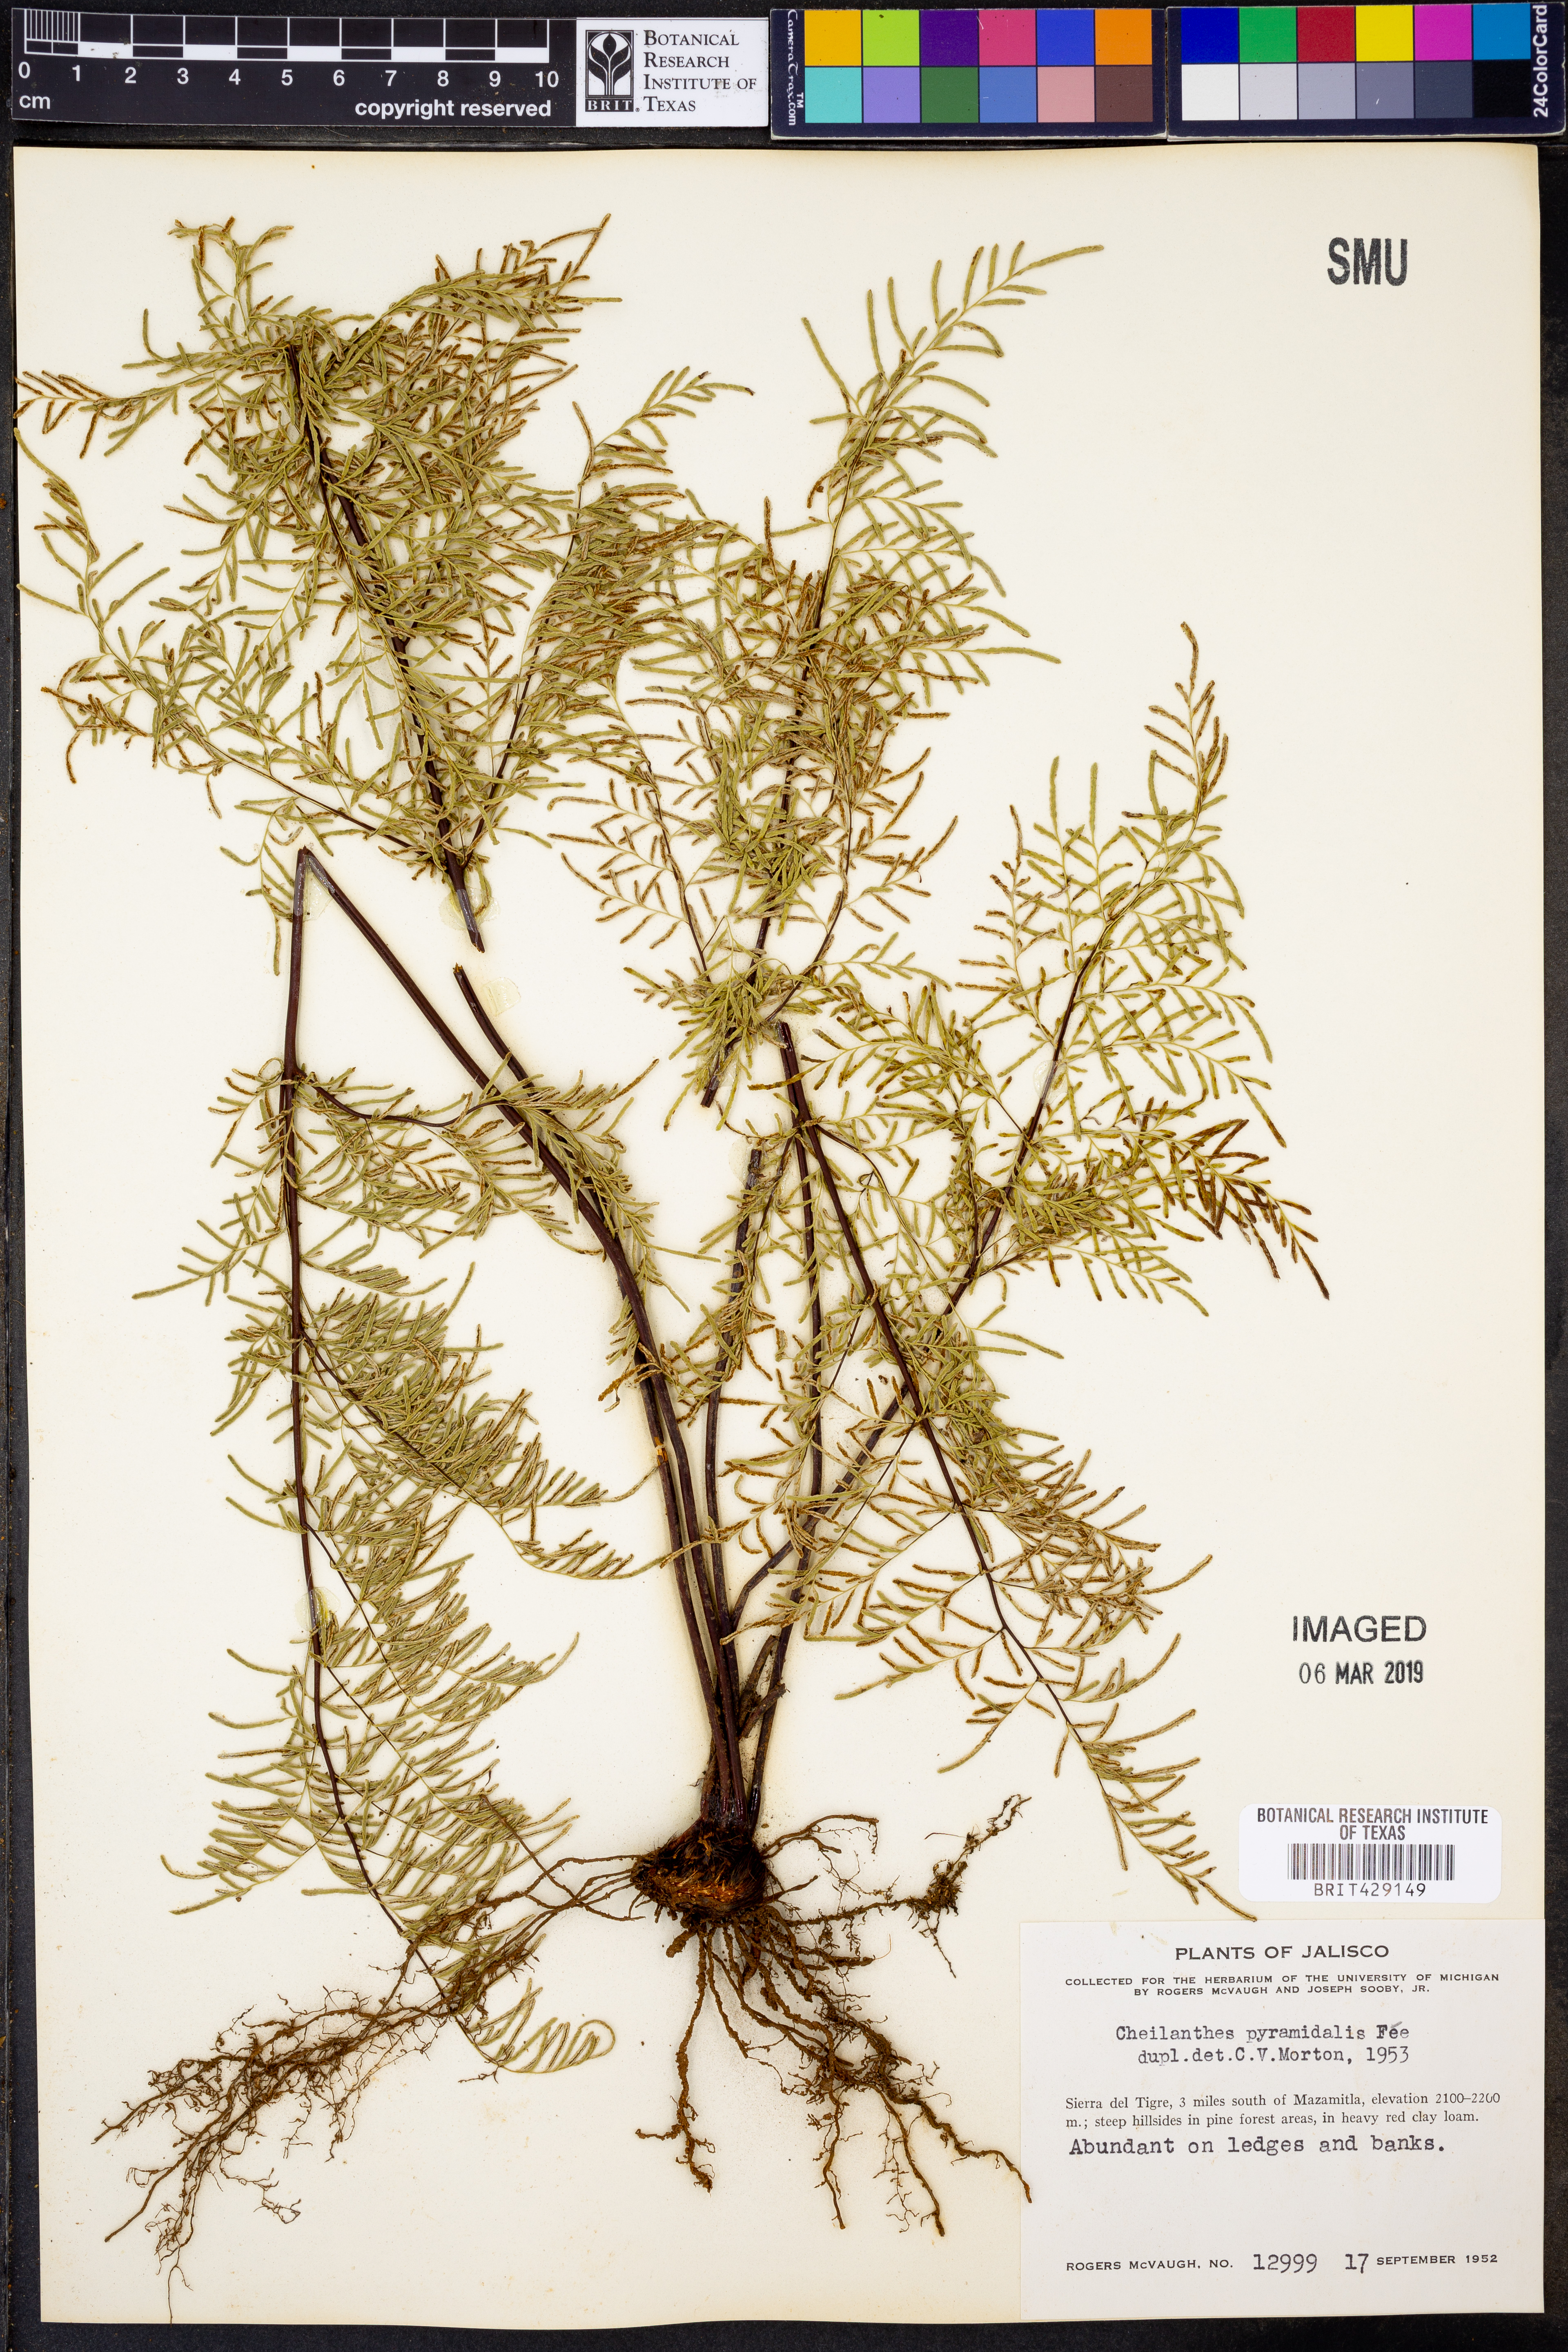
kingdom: Plantae
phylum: Tracheophyta
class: Polypodiopsida
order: Polypodiales
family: Pteridaceae
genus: Gaga
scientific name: Gaga hirsuta
